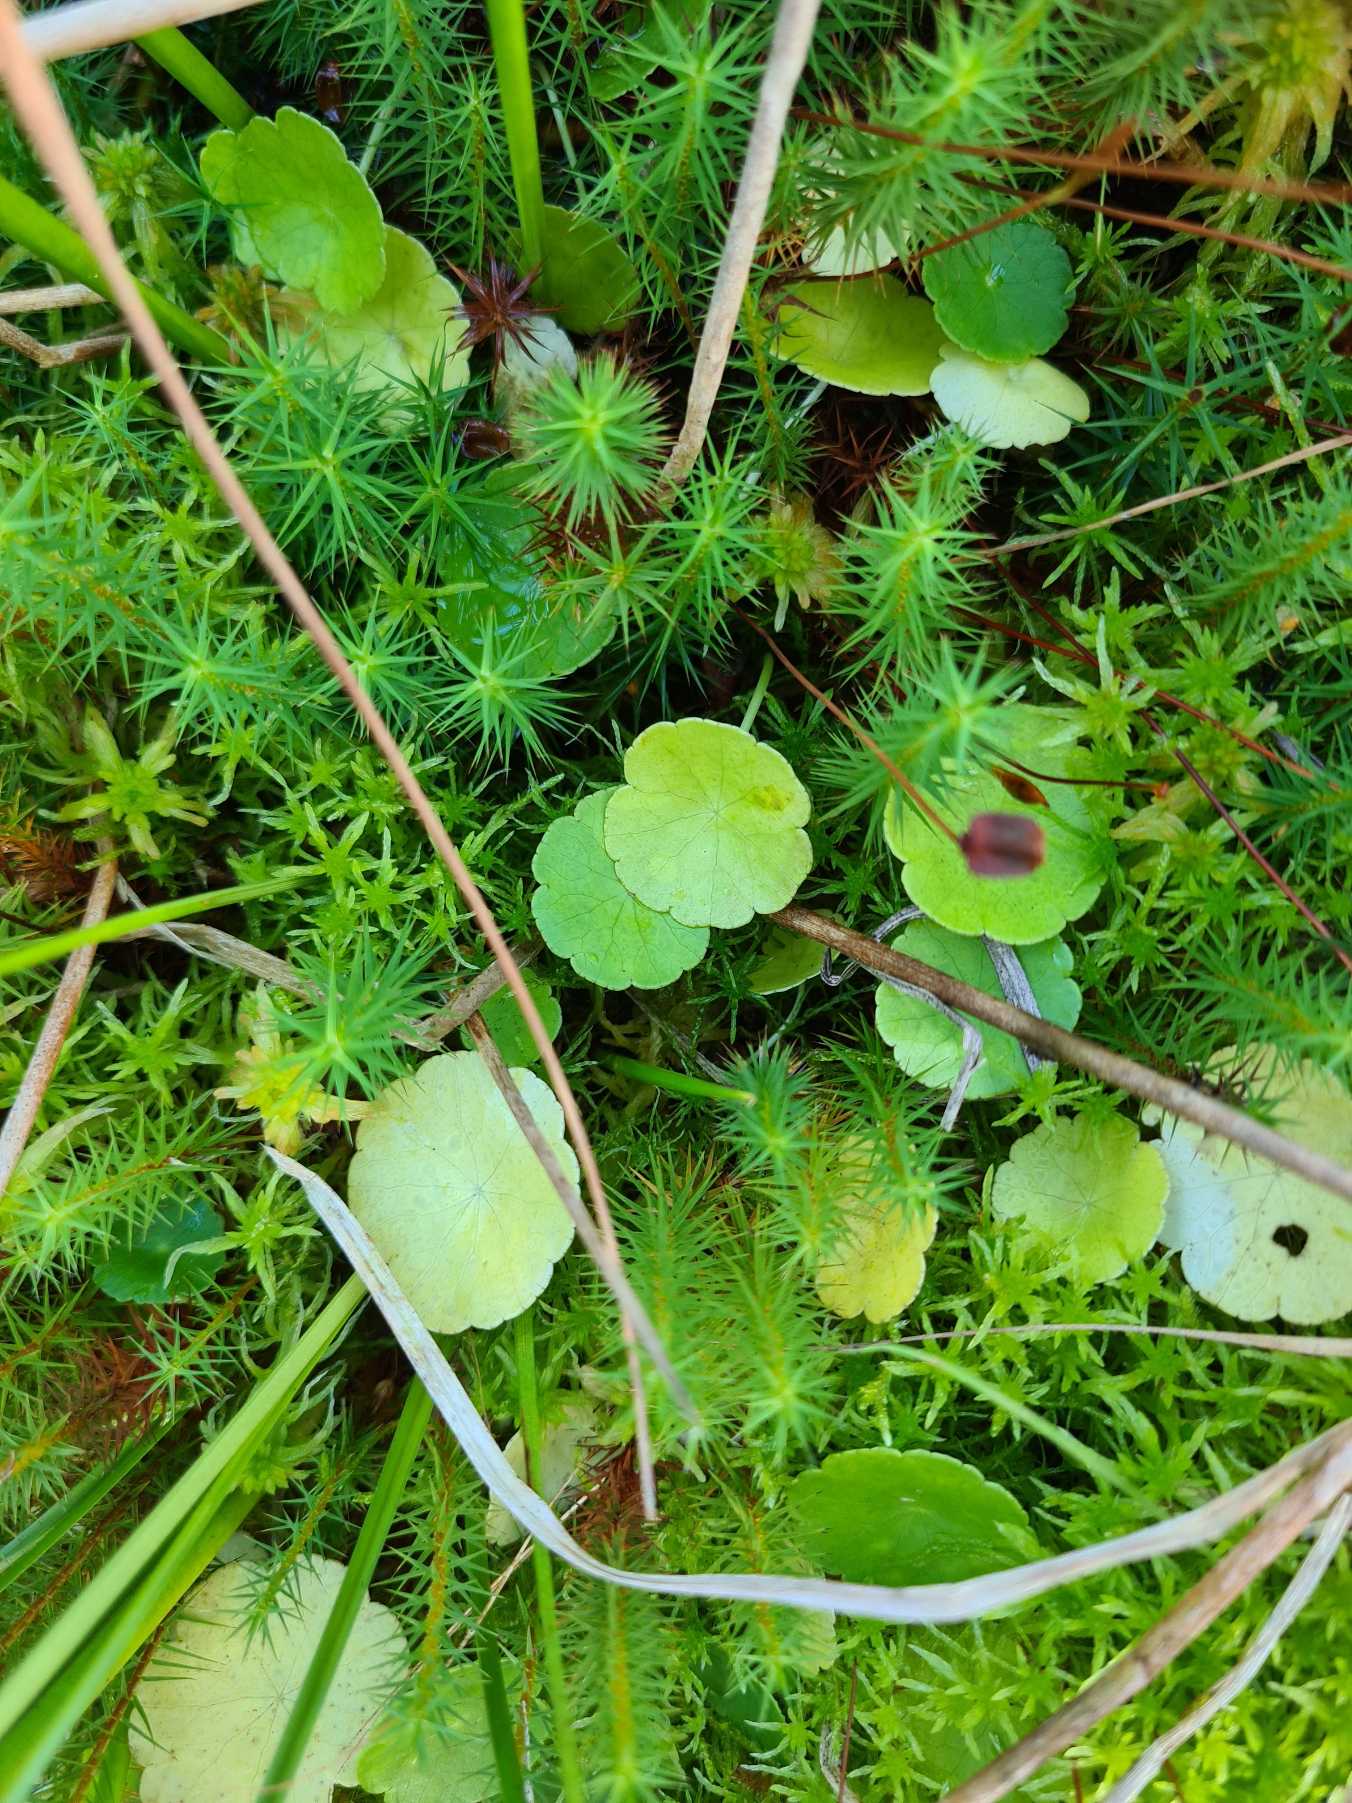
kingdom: Plantae
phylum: Tracheophyta
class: Magnoliopsida
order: Apiales
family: Araliaceae
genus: Hydrocotyle
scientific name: Hydrocotyle vulgaris
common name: Vandnavle
